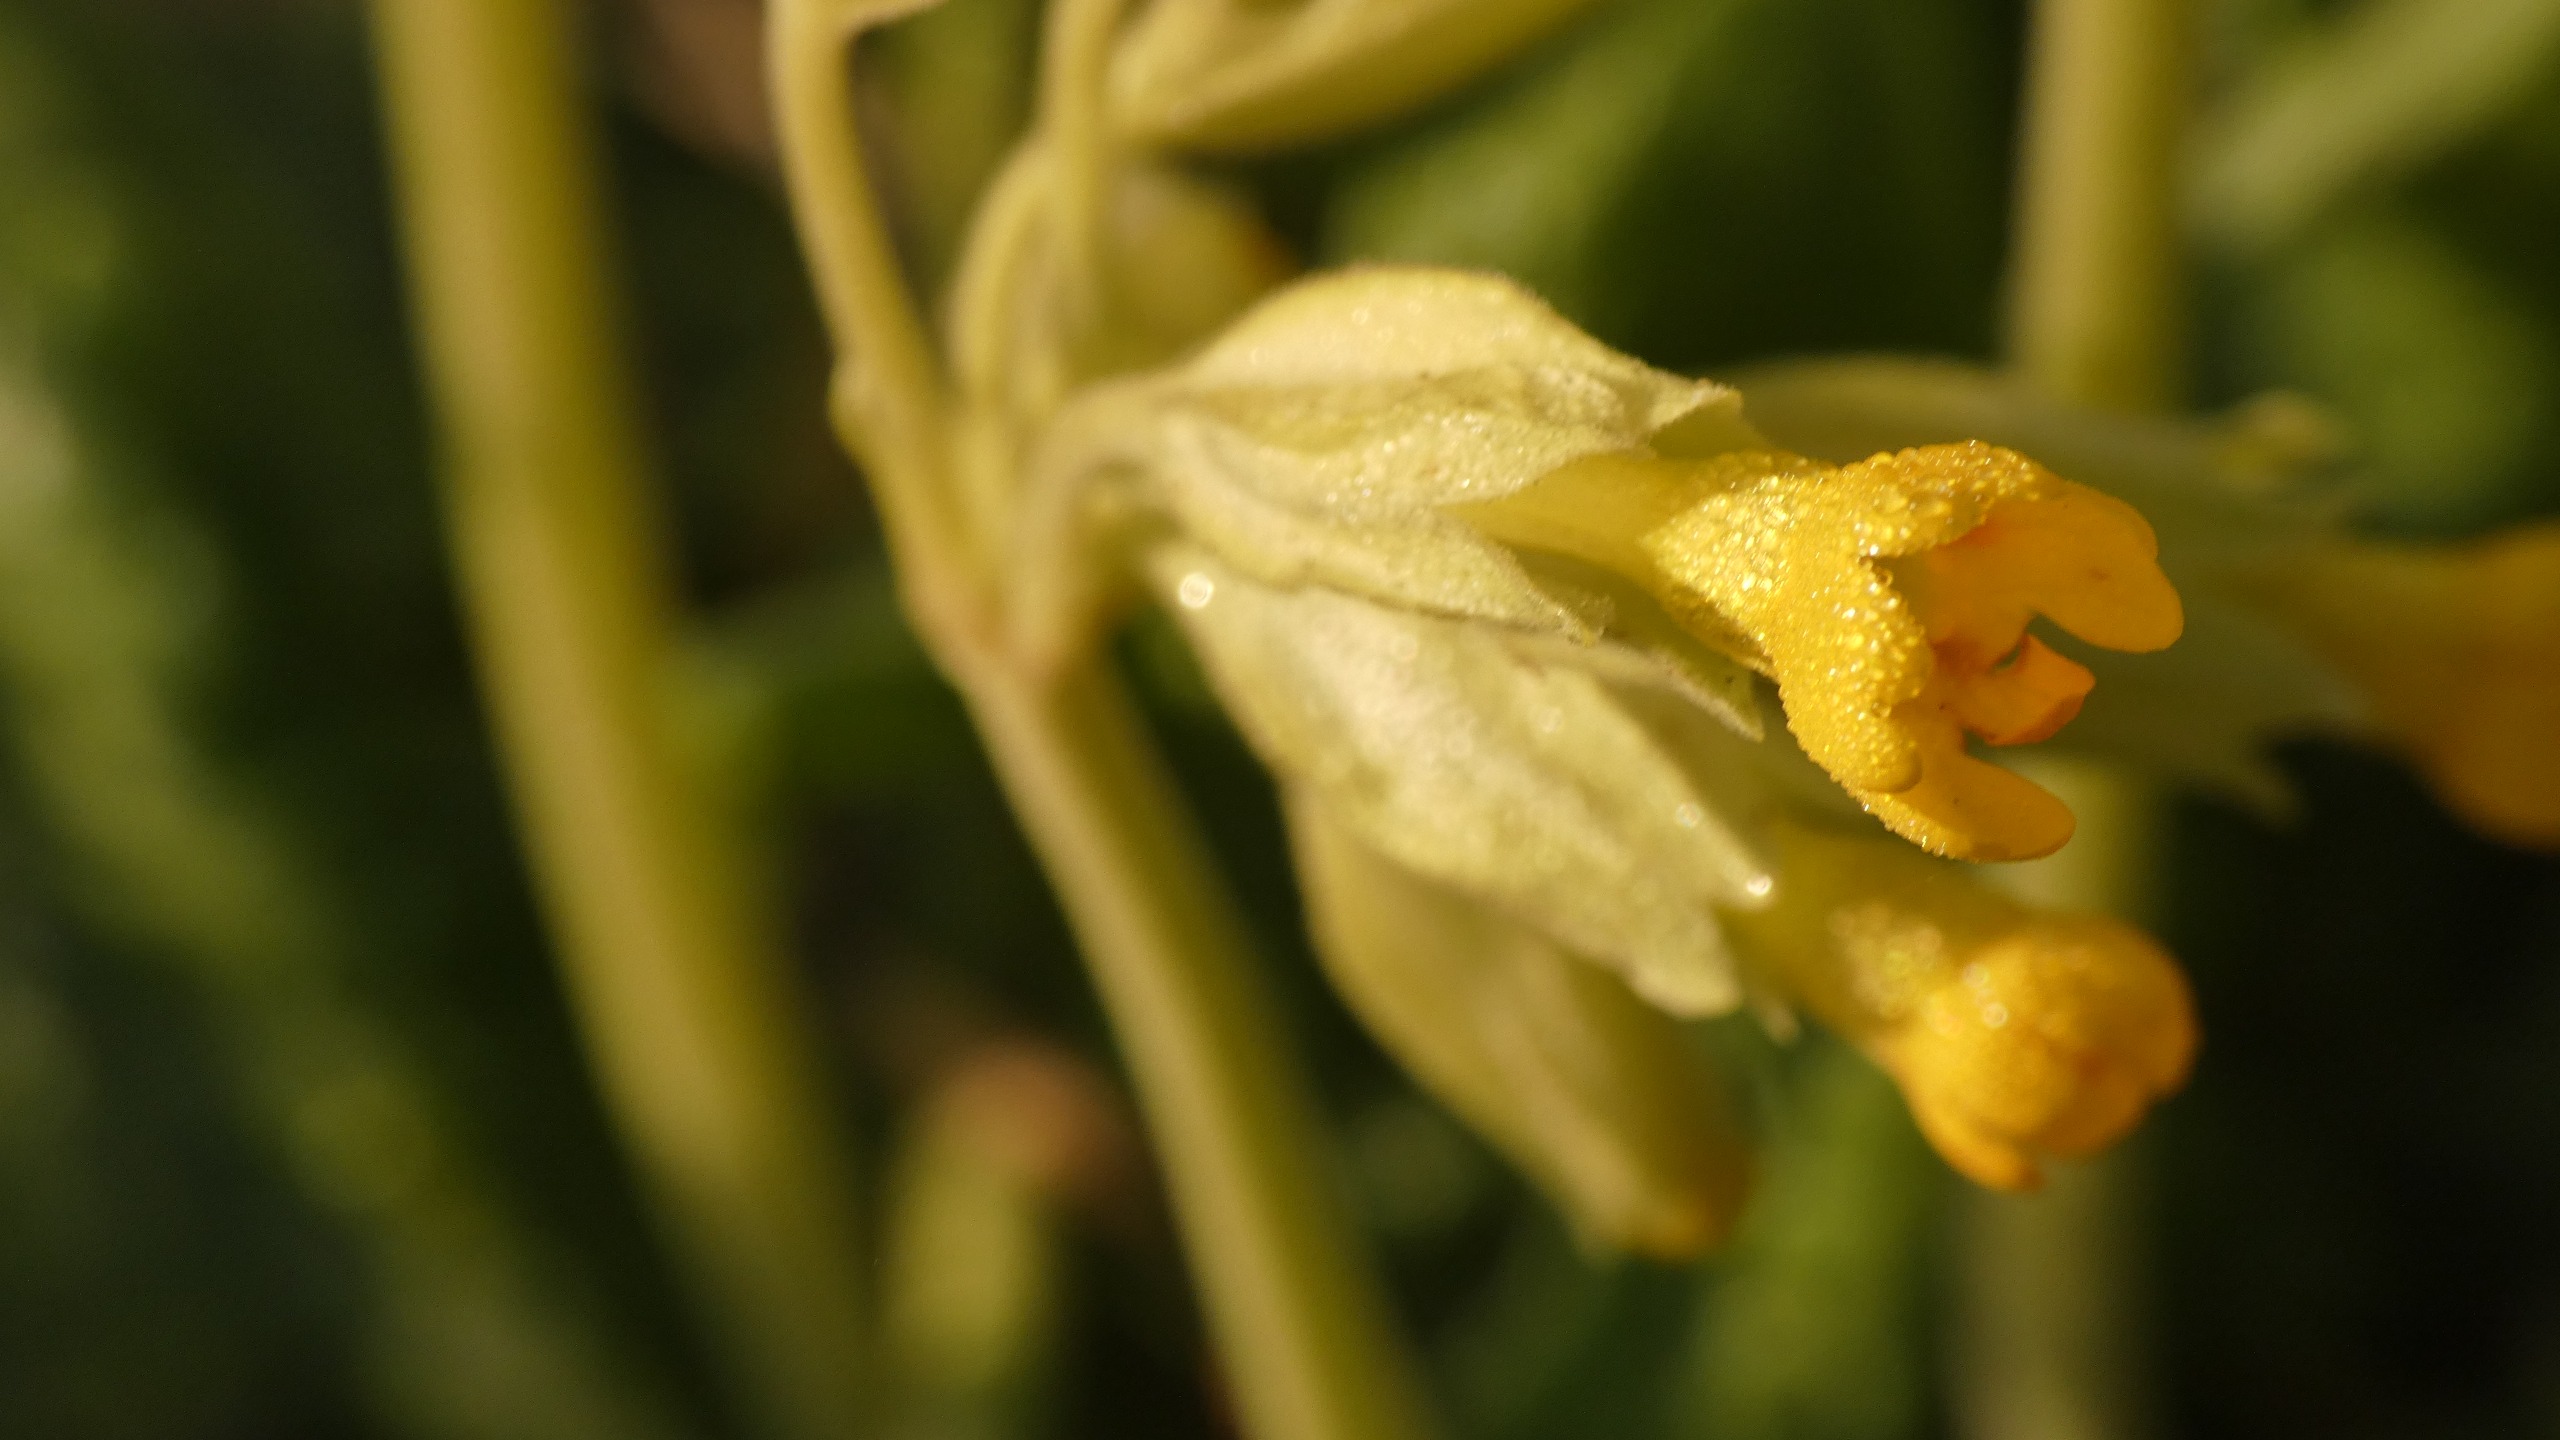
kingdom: Plantae
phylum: Tracheophyta
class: Magnoliopsida
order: Ericales
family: Primulaceae
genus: Primula
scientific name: Primula veris
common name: Hulkravet kodriver
